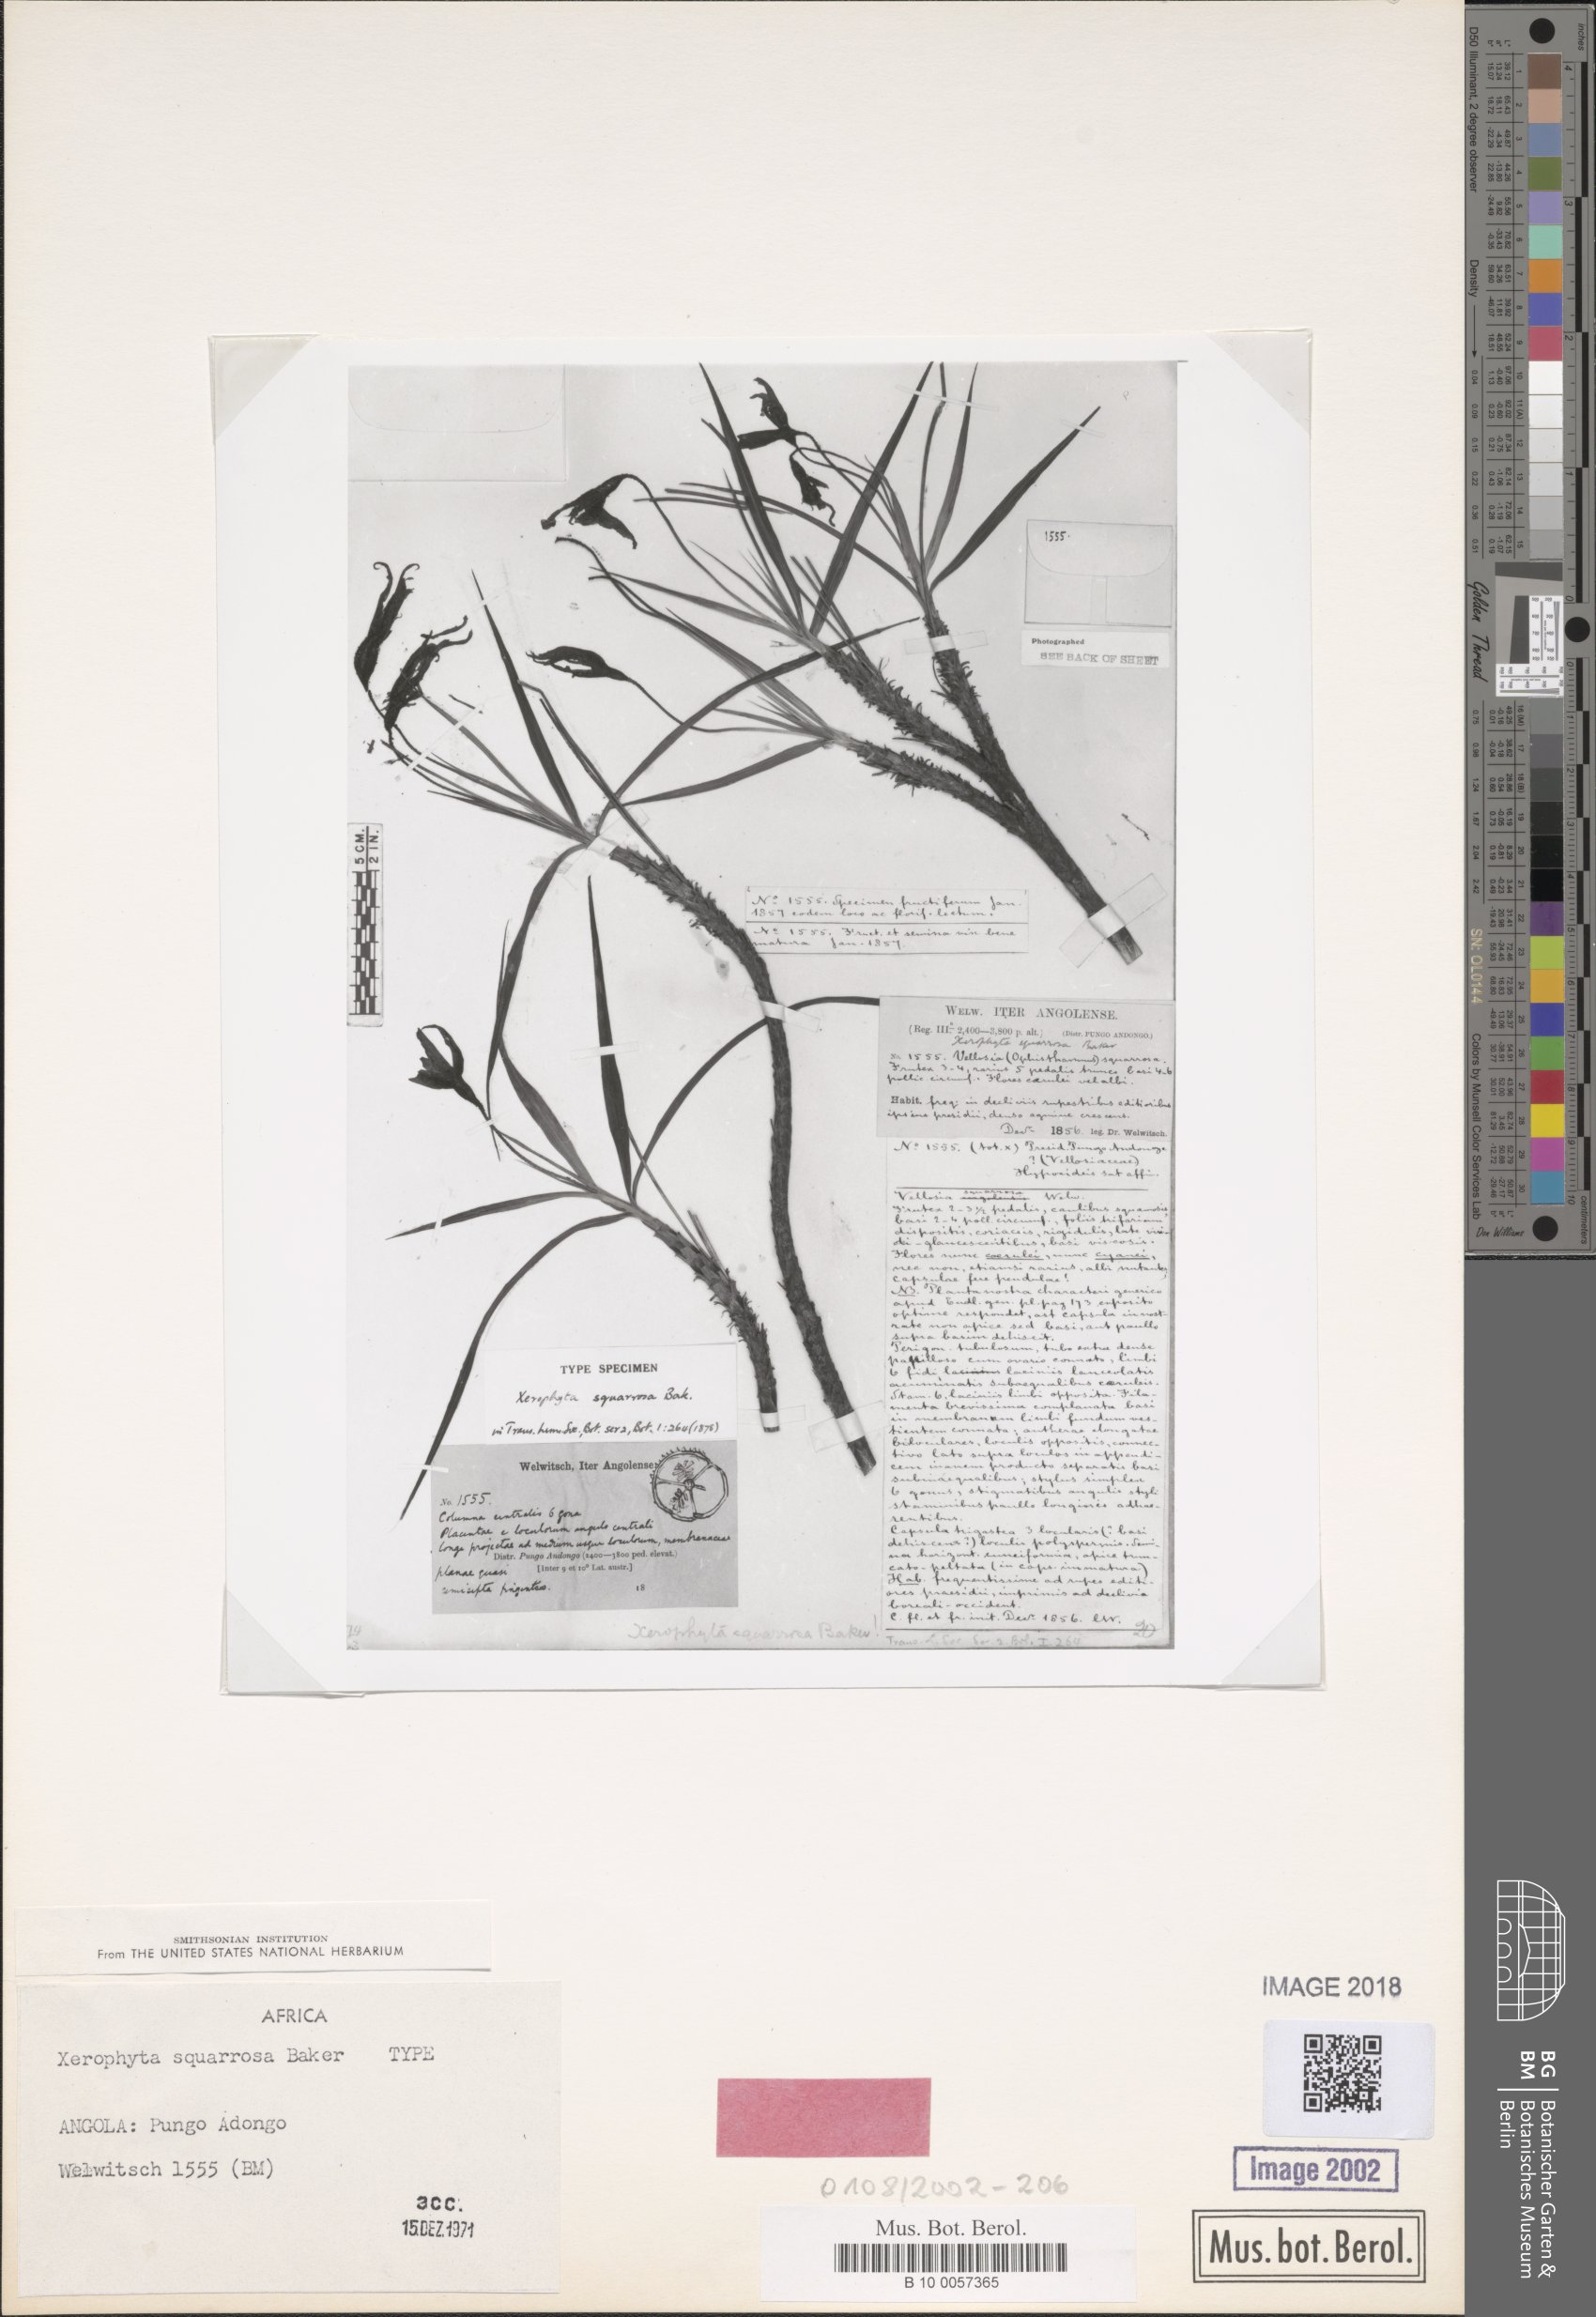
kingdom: Plantae
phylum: Tracheophyta
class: Liliopsida
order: Pandanales
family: Velloziaceae
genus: Xerophyta
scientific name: Xerophyta squarrosa
